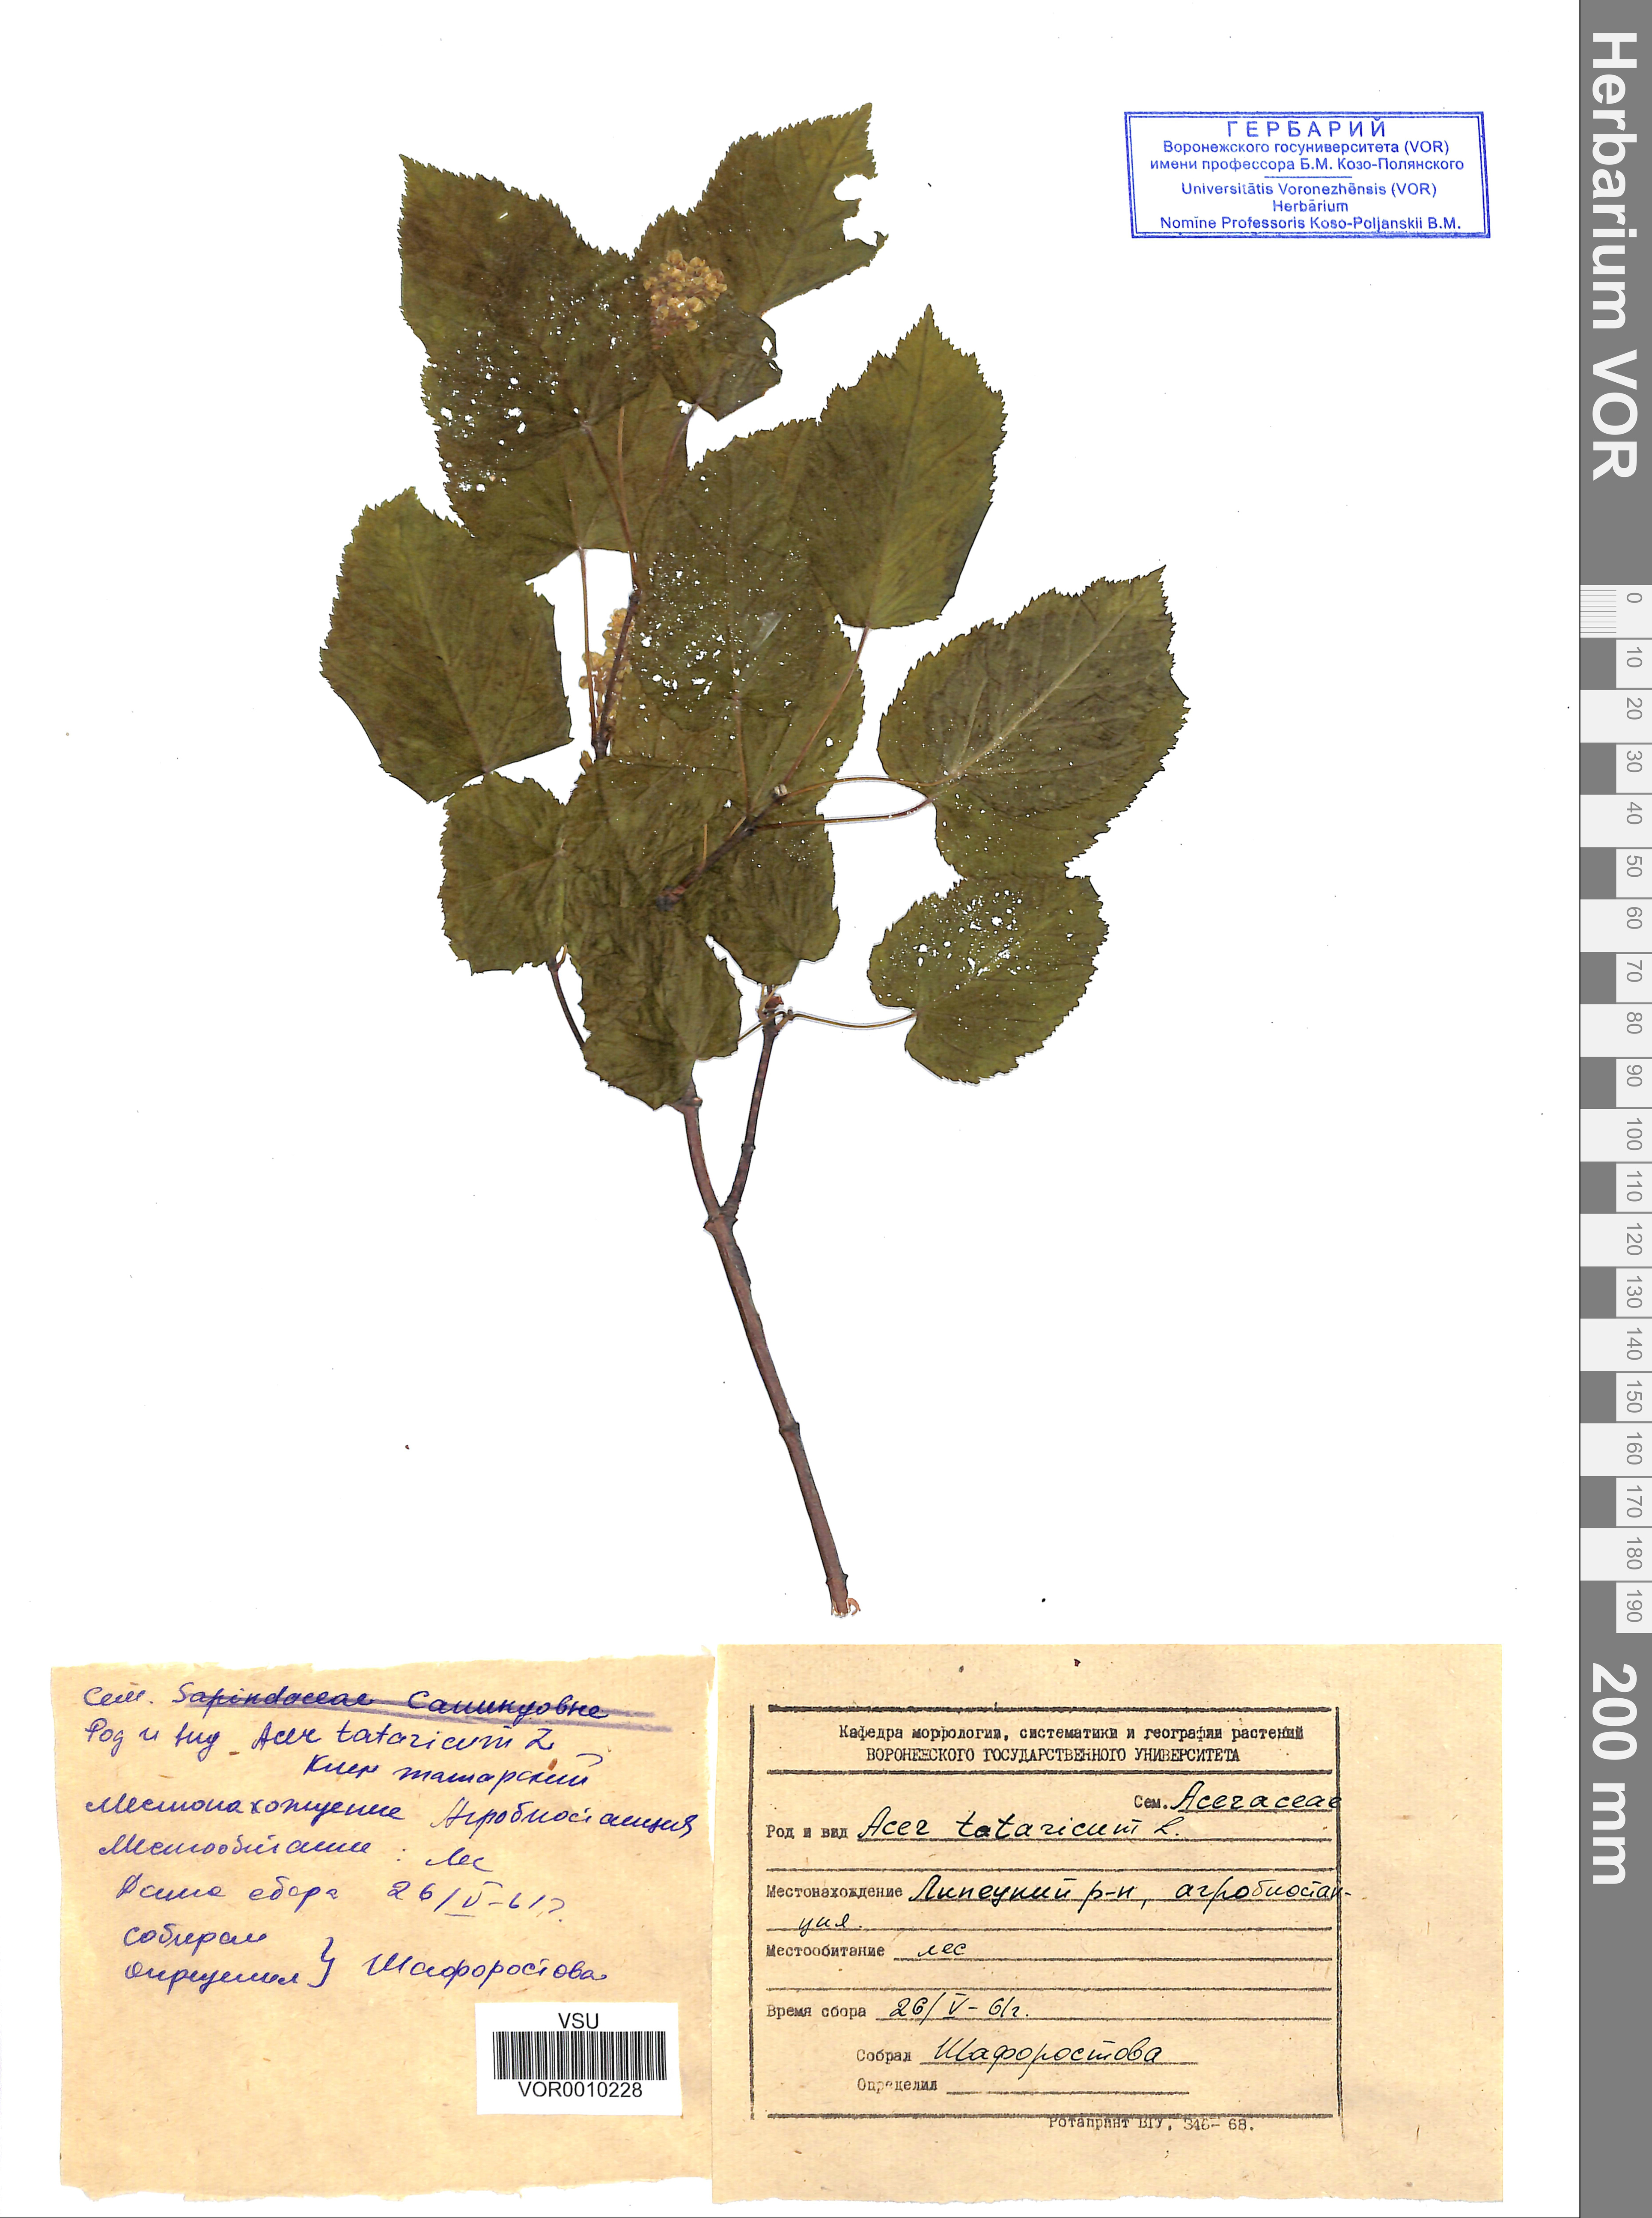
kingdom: Plantae
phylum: Tracheophyta
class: Magnoliopsida
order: Sapindales
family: Sapindaceae
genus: Acer
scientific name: Acer tataricum
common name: Tartar maple
